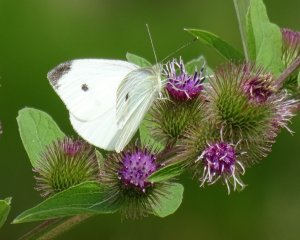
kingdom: Animalia
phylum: Arthropoda
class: Insecta
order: Lepidoptera
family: Pieridae
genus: Pieris
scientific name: Pieris rapae
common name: Cabbage White
